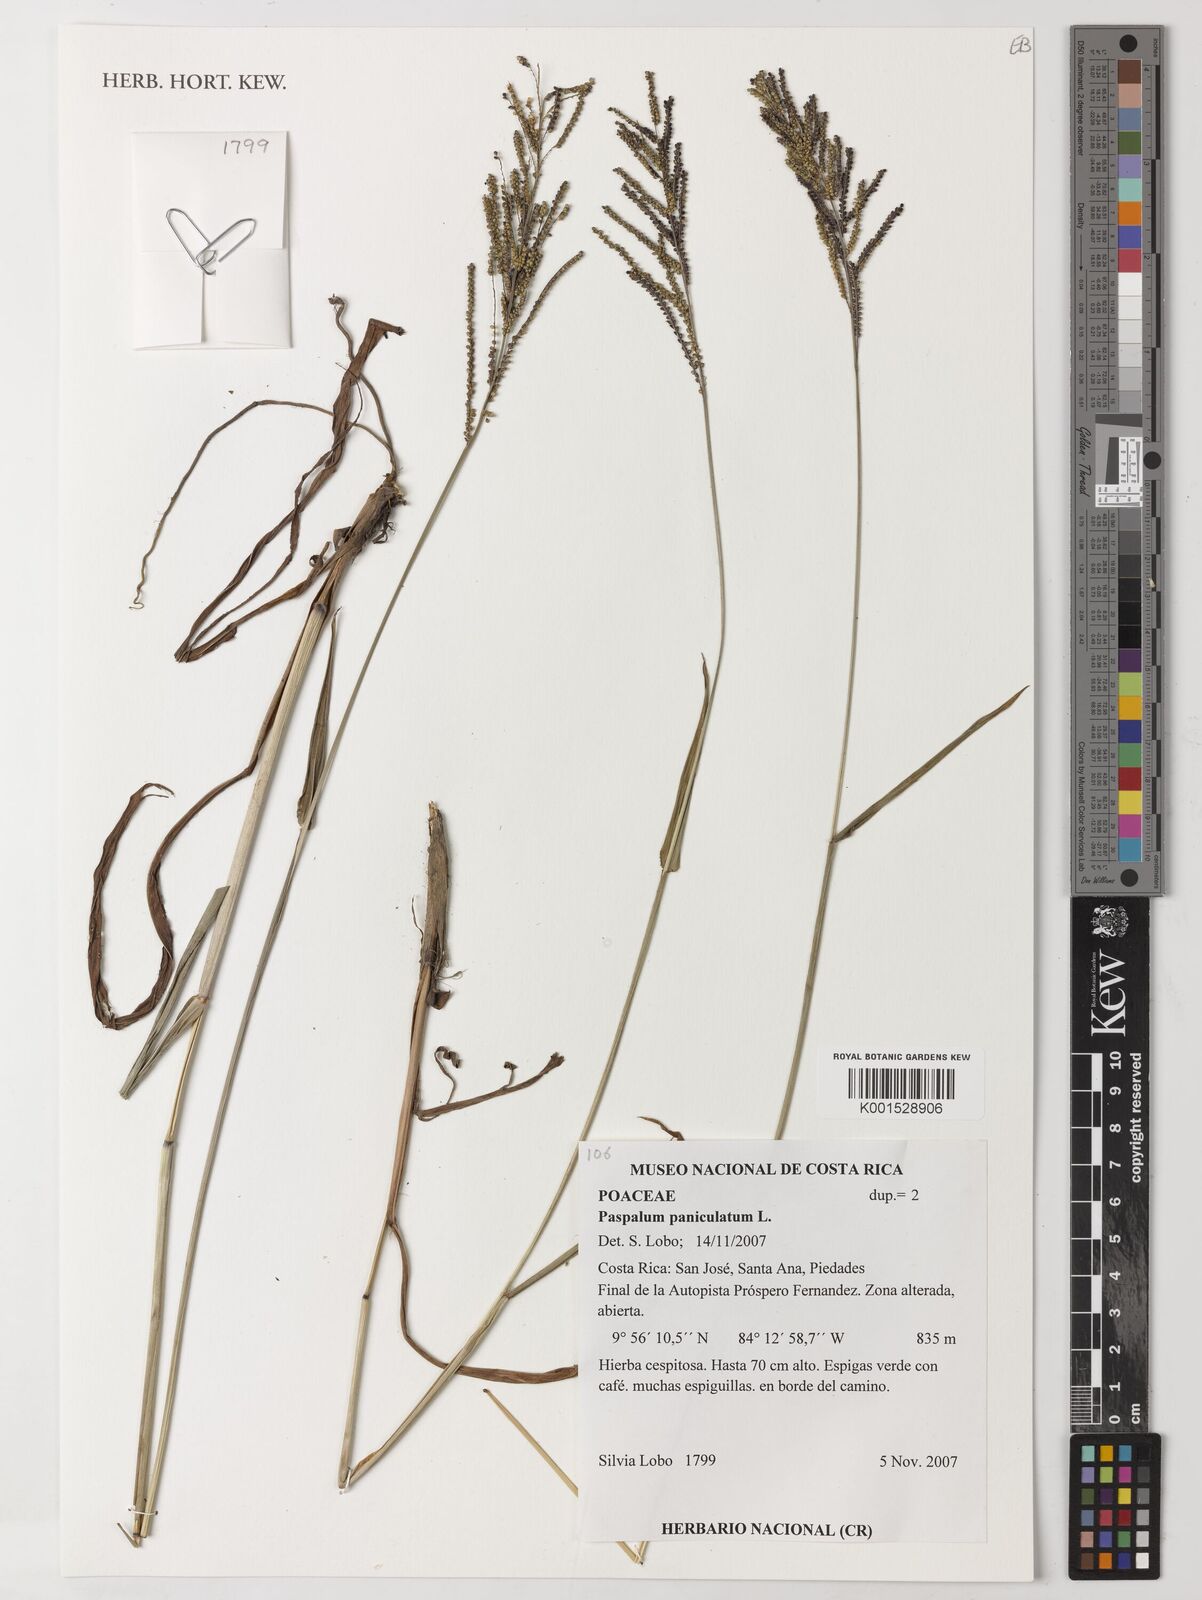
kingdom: Plantae
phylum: Tracheophyta
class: Liliopsida
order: Poales
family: Poaceae
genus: Paspalum
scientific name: Paspalum paniculatum
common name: Arrocillo
